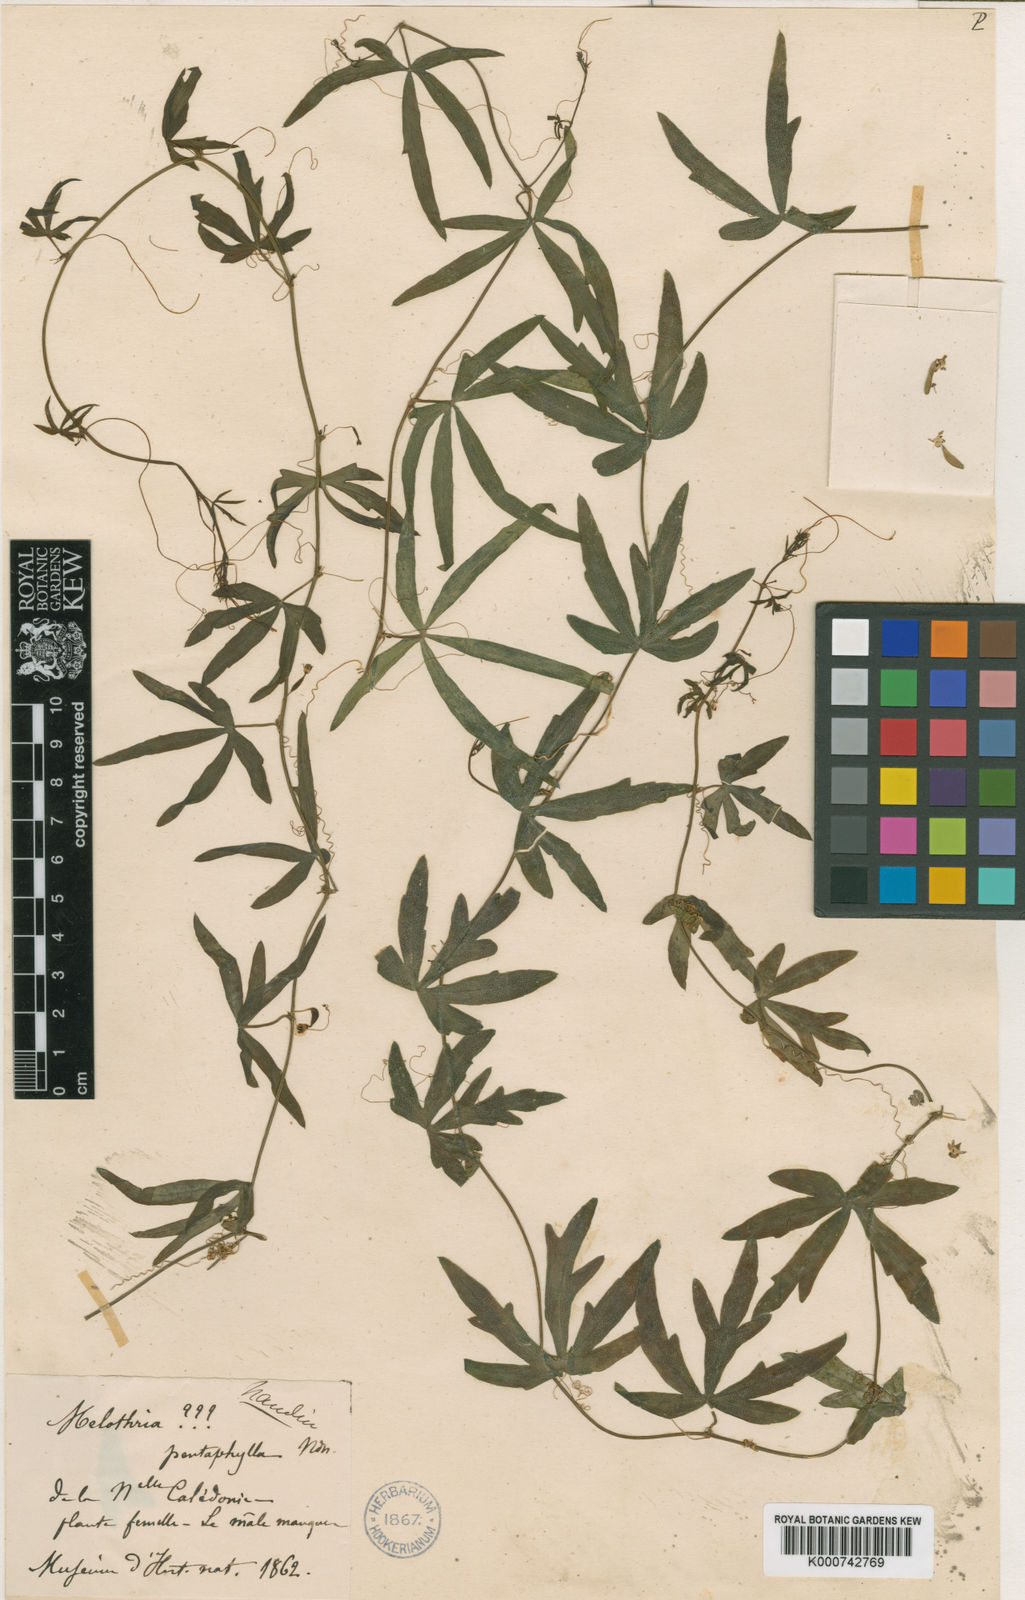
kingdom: Plantae
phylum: Tracheophyta
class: Magnoliopsida
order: Cucurbitales
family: Cucurbitaceae
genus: Zehneria
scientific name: Zehneria
